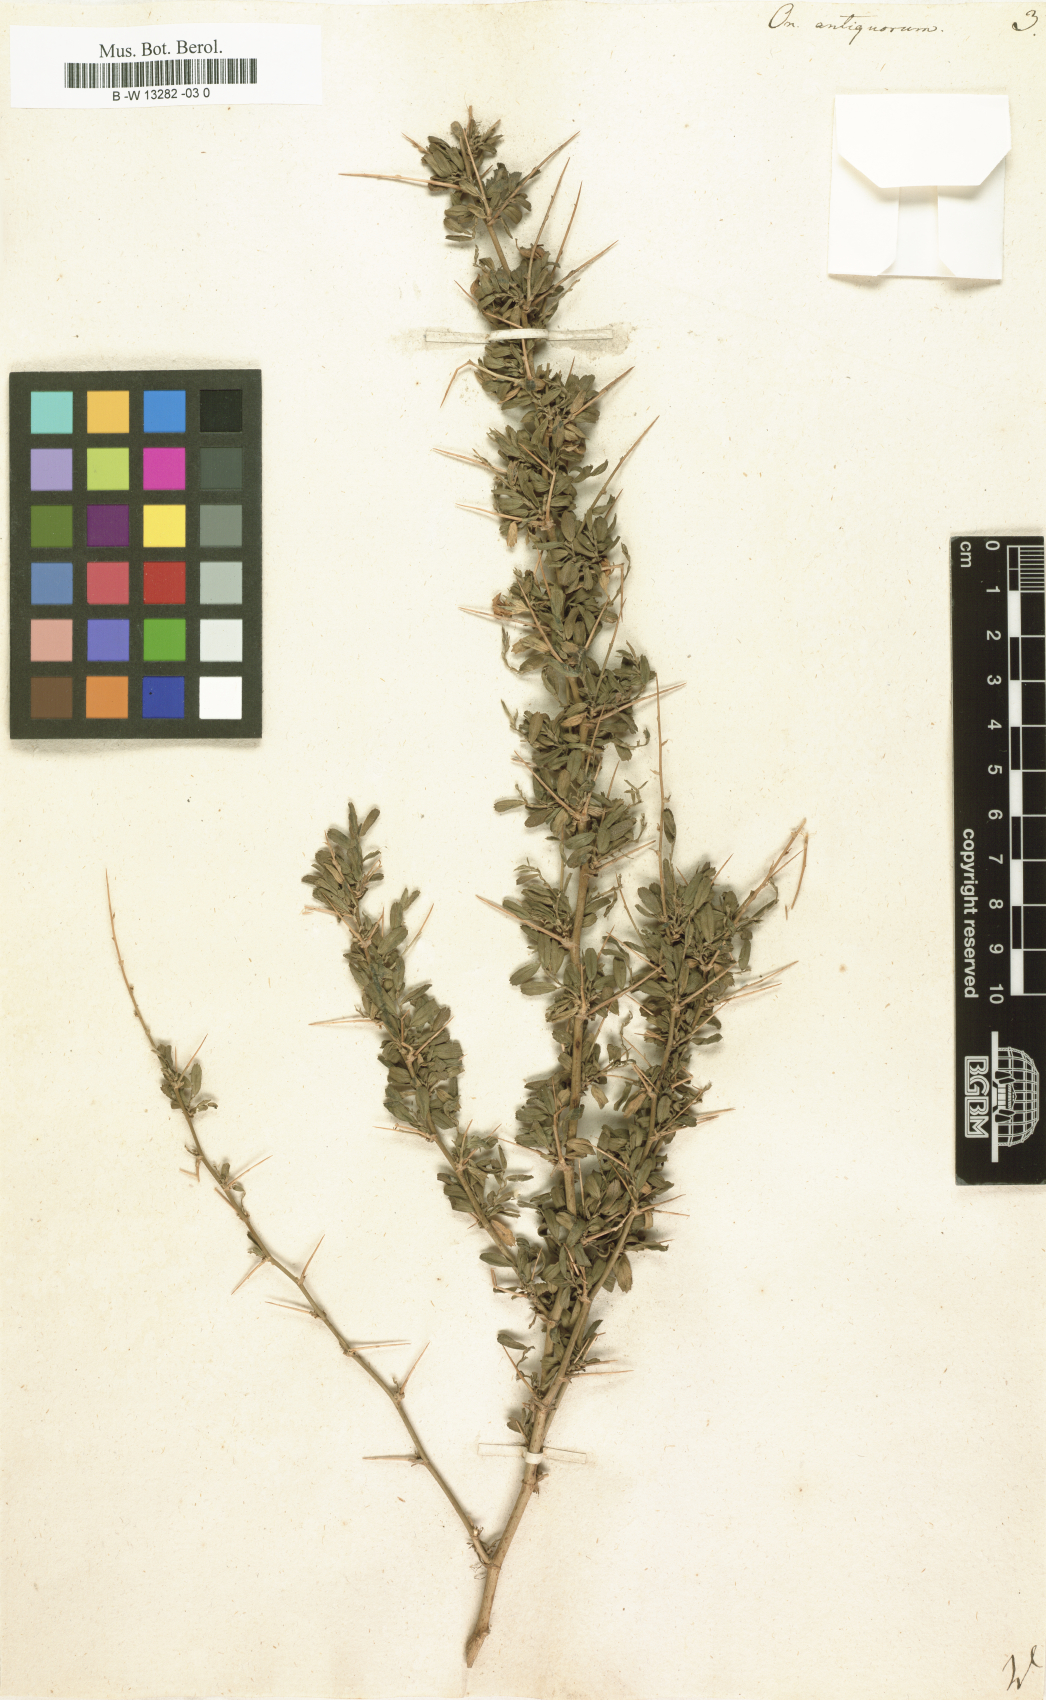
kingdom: Plantae
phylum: Tracheophyta
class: Magnoliopsida
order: Fabales
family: Fabaceae
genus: Ononis
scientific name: Ononis antiquorum
